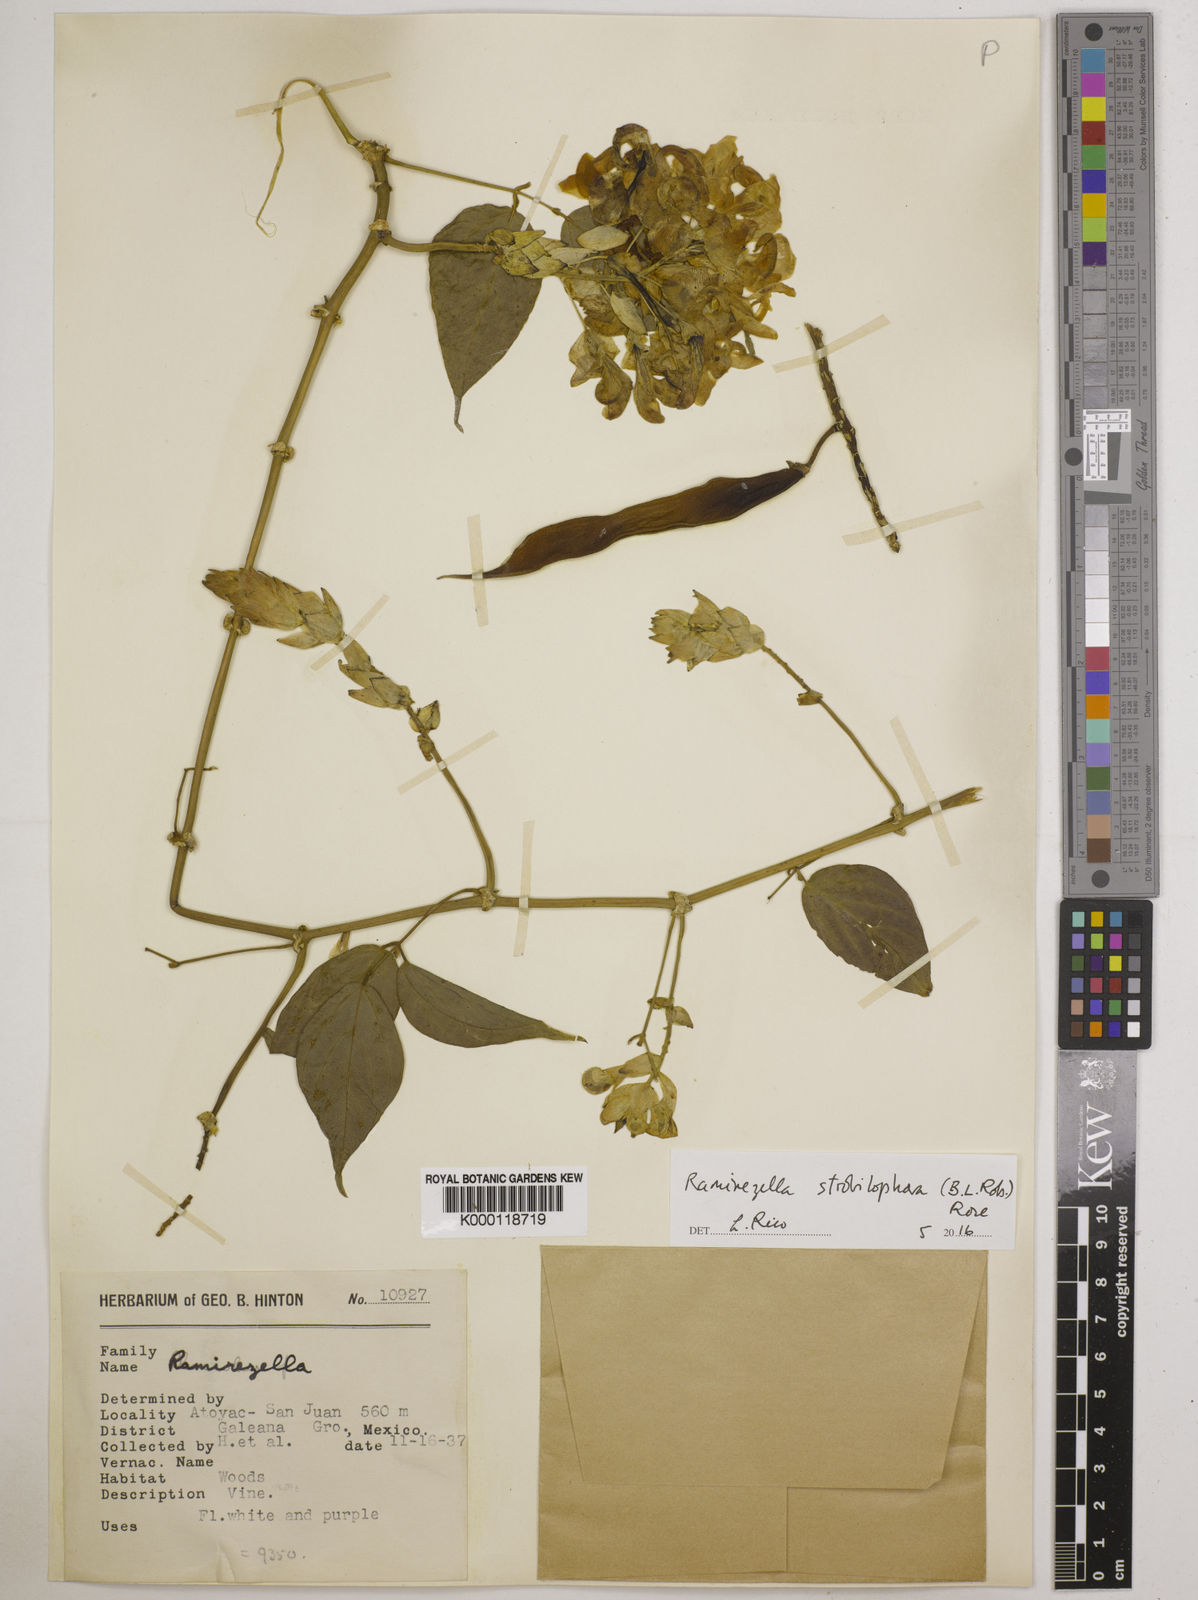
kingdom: Plantae
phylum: Tracheophyta
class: Magnoliopsida
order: Fabales
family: Fabaceae
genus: Ramirezella
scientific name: Ramirezella strobilophora
